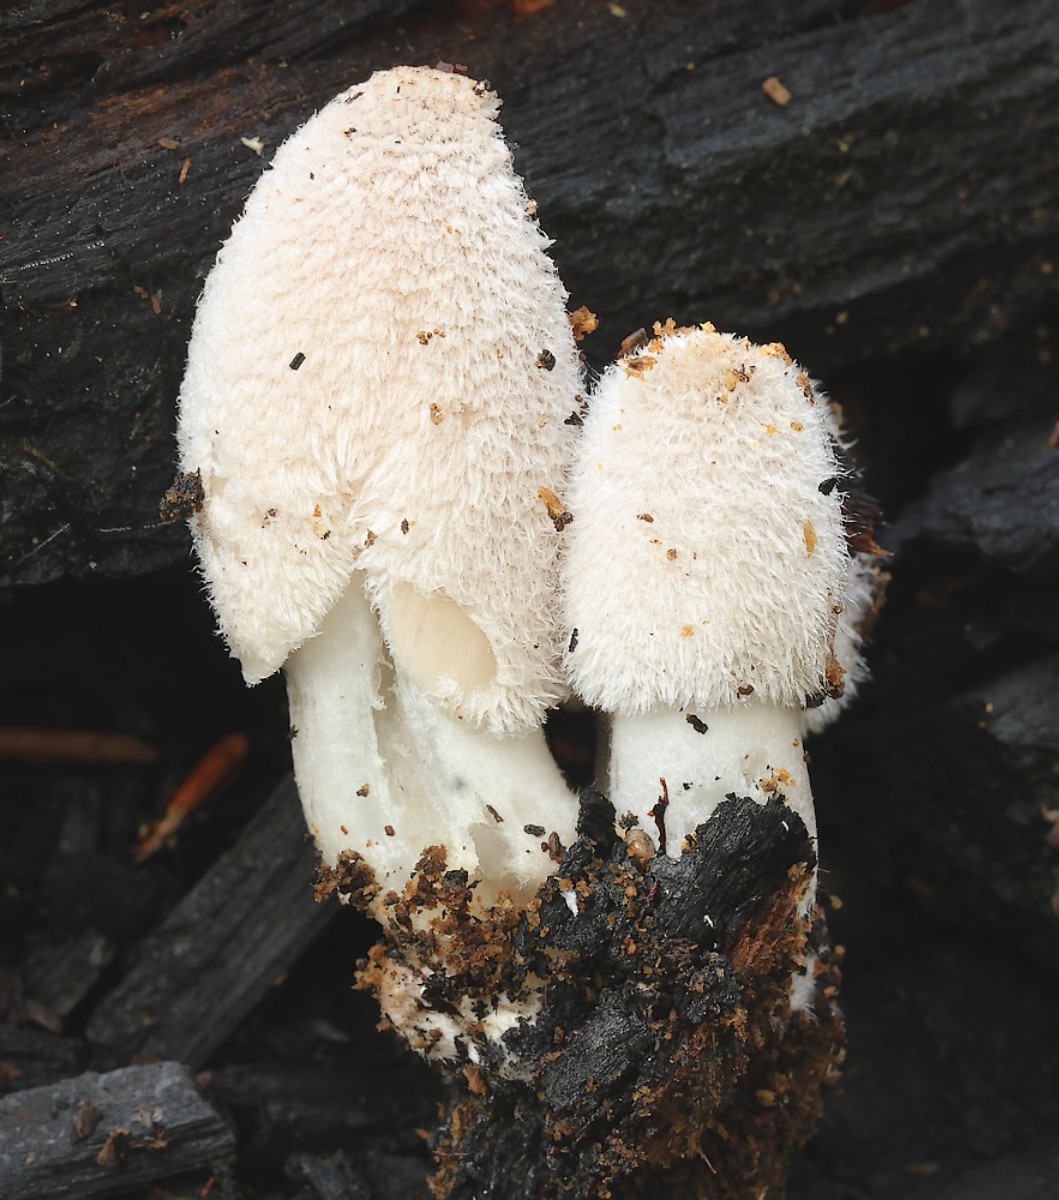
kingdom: Fungi
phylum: Basidiomycota
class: Agaricomycetes
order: Agaricales
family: Psathyrellaceae
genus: Coprinopsis
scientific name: Coprinopsis
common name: blækhat
